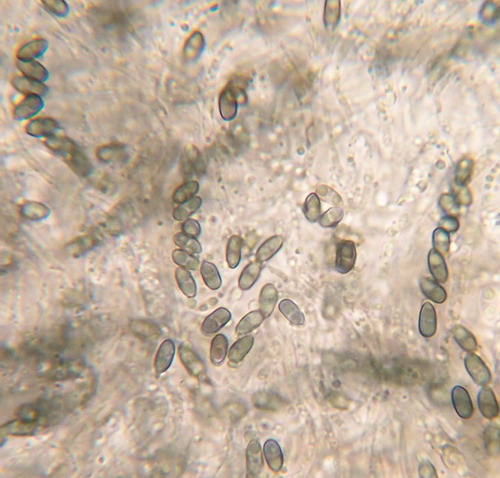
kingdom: Fungi
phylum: Ascomycota
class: Sordariomycetes
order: Boliniales
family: Boliniaceae
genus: Camarops
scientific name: Camarops tubulina
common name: knudret kulsnegl
